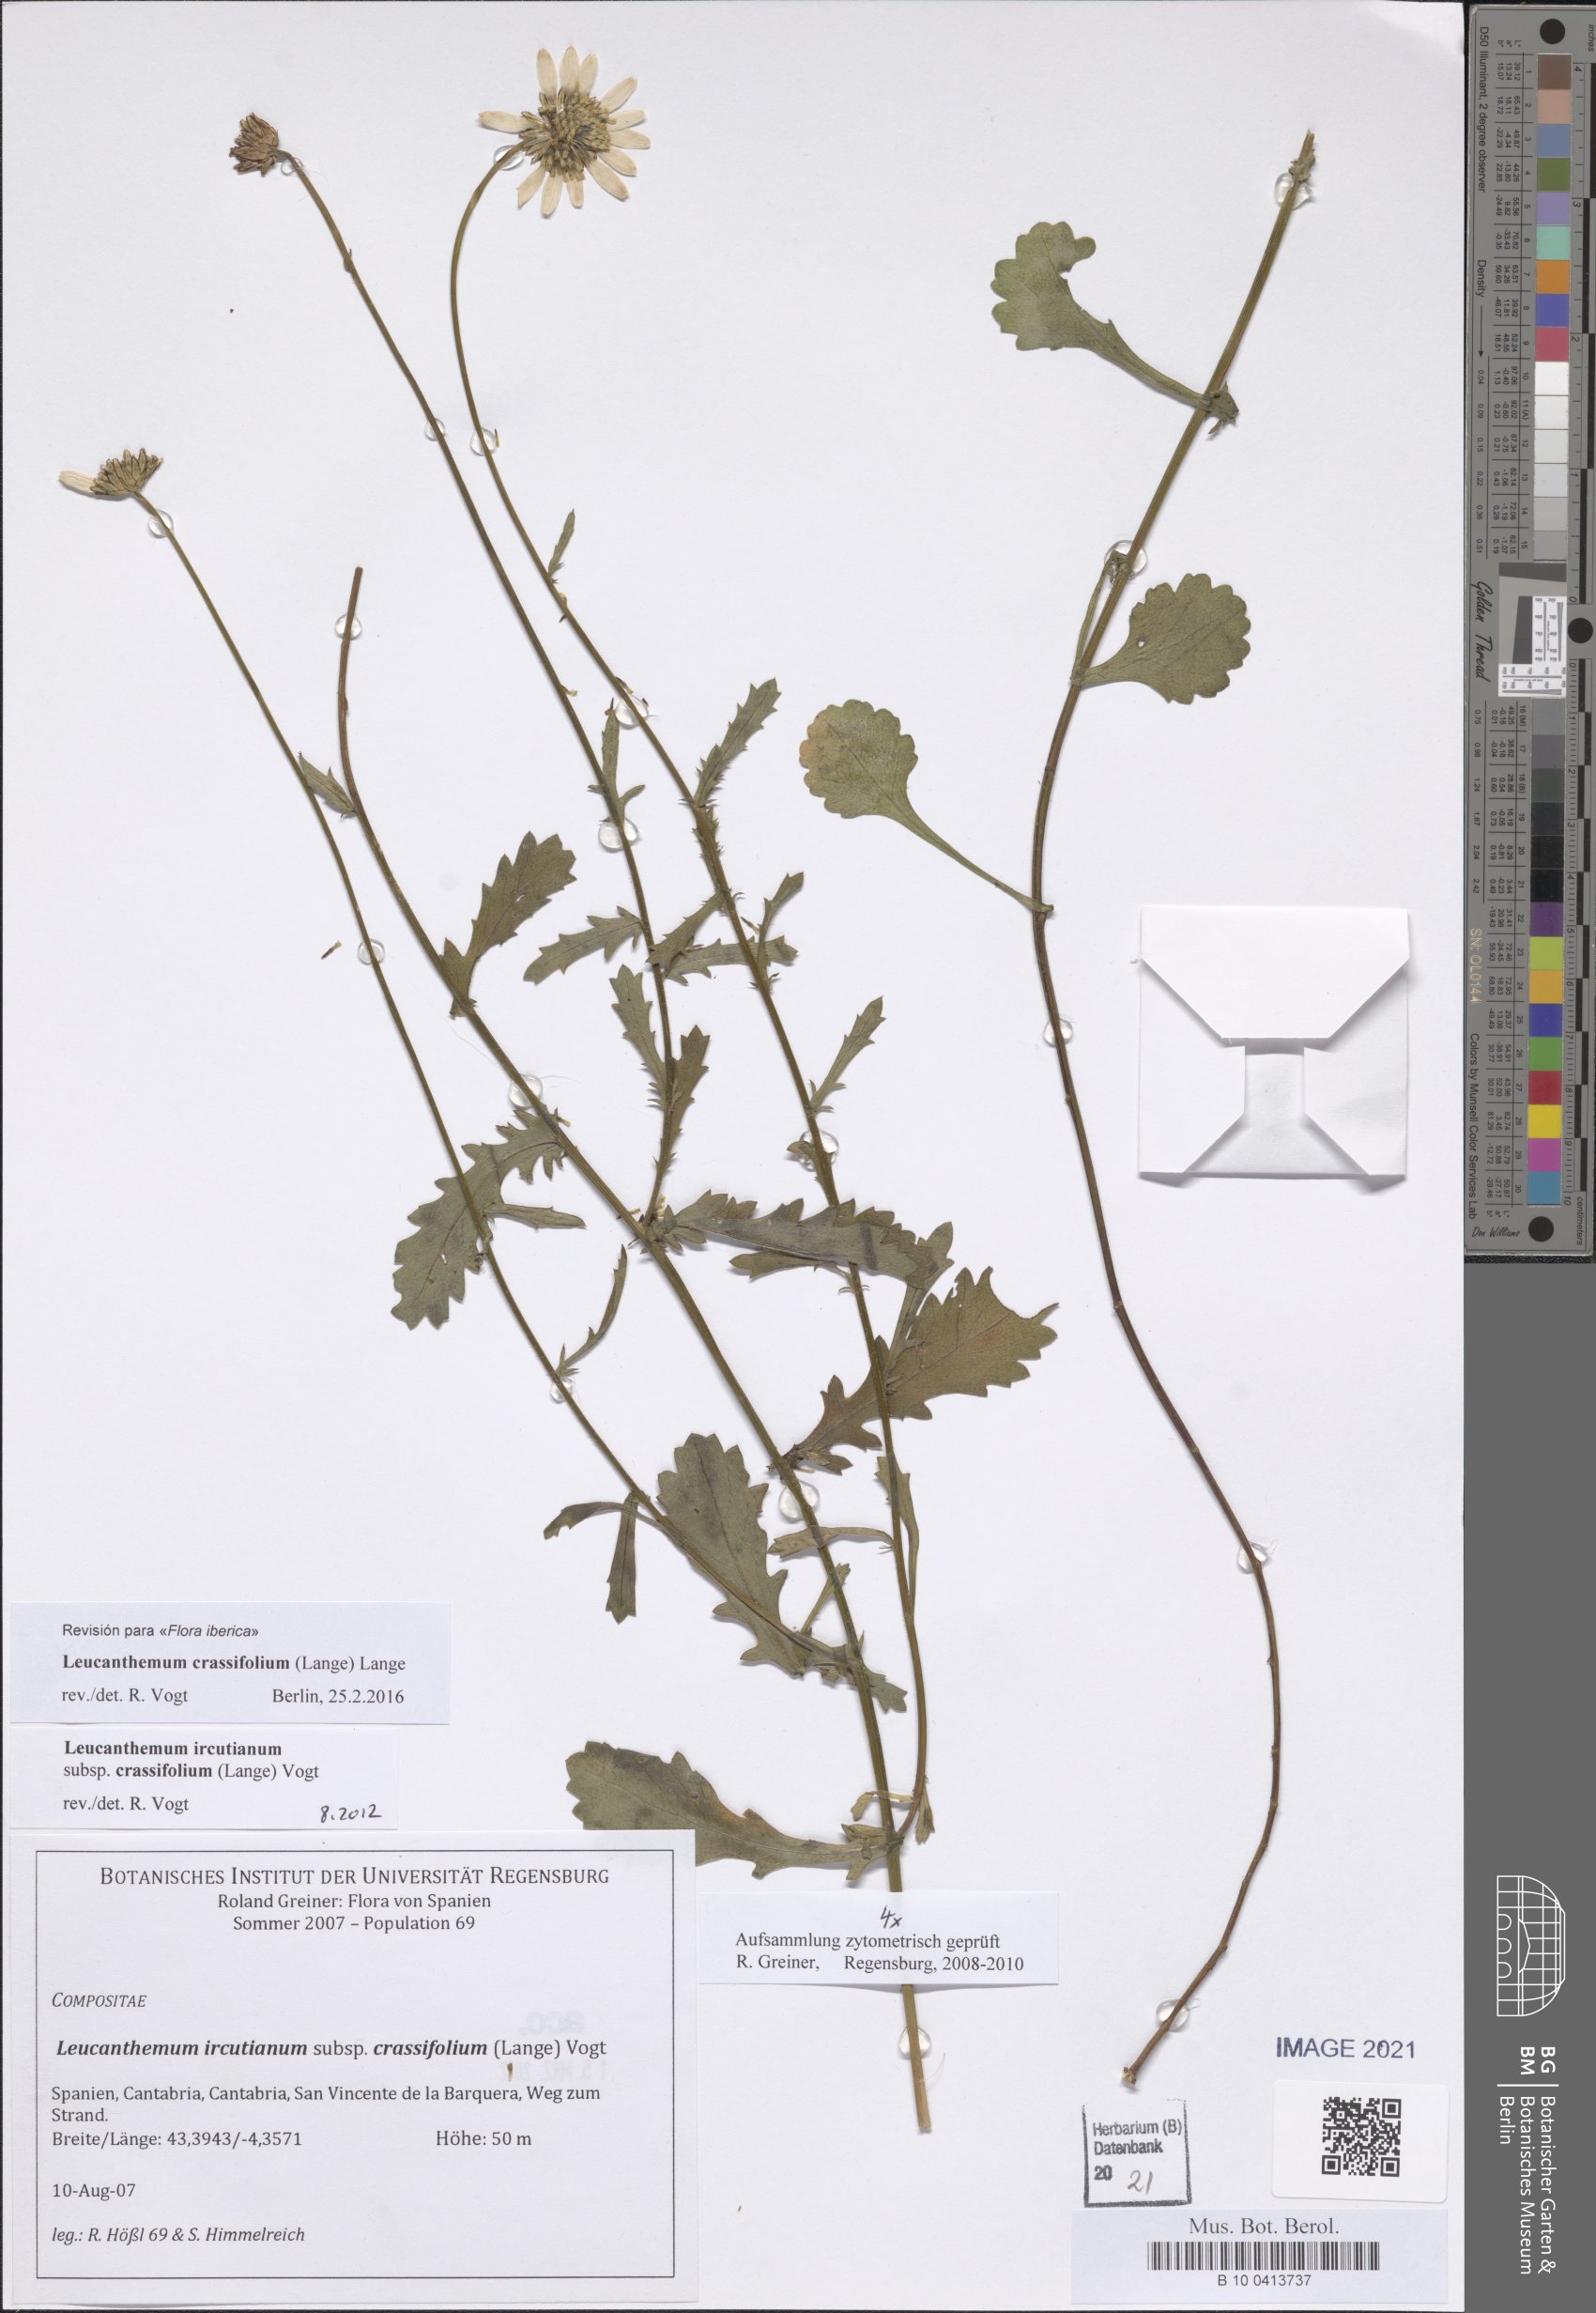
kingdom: Plantae
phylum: Tracheophyta
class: Magnoliopsida
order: Asterales
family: Asteraceae
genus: Leucanthemum
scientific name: Leucanthemum crassifolium
